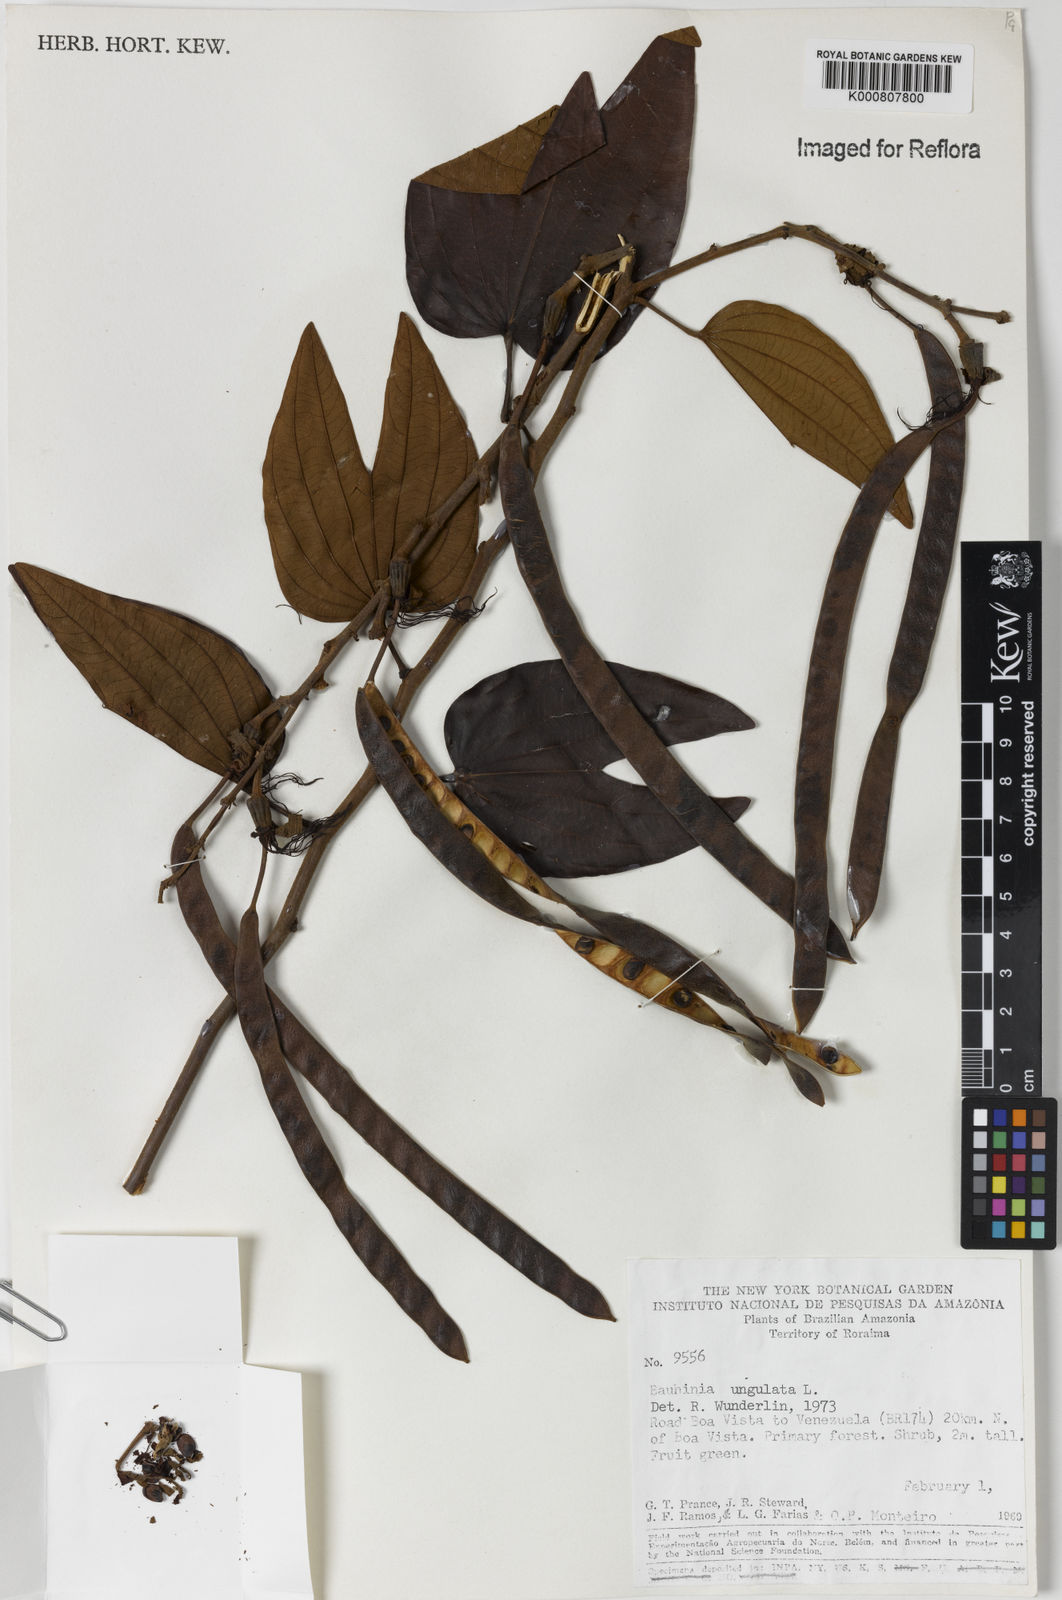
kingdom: Plantae
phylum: Tracheophyta
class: Magnoliopsida
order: Fabales
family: Fabaceae
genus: Bauhinia
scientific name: Bauhinia ungulata
